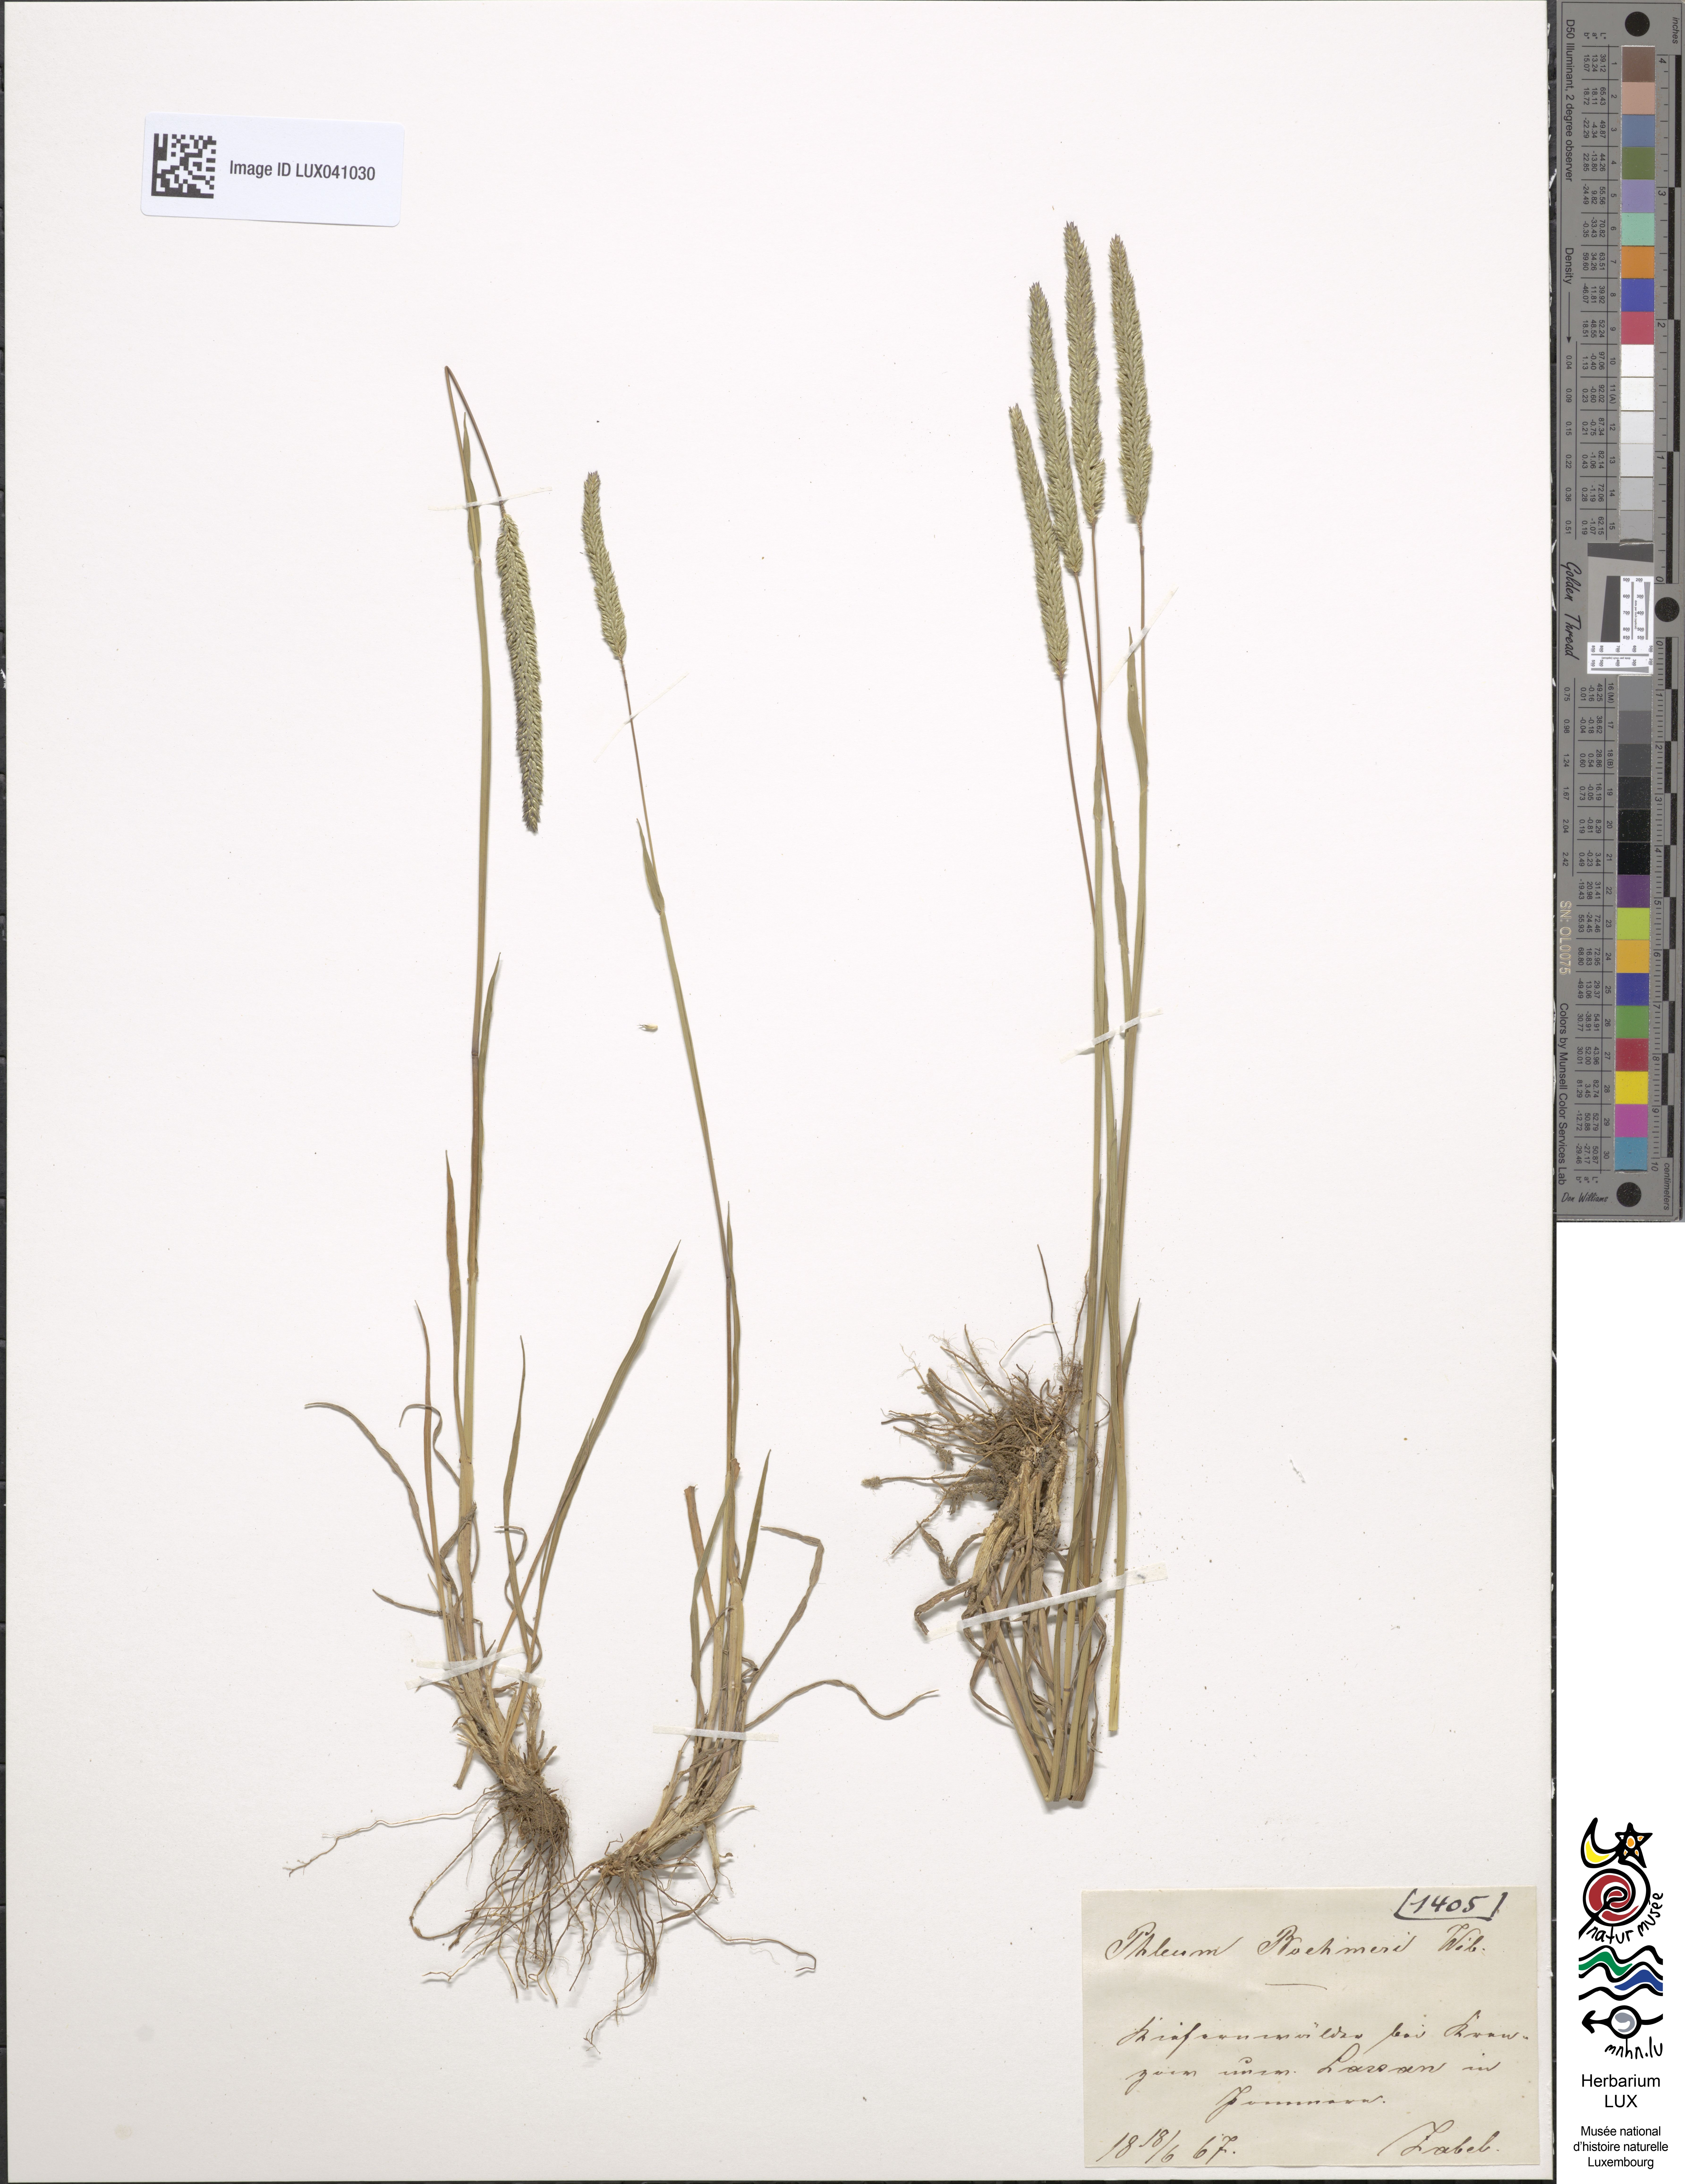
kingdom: Plantae
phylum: Tracheophyta
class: Liliopsida
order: Poales
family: Poaceae
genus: Phleum
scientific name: Phleum phleoides
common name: Purple-stem cat's-tail
